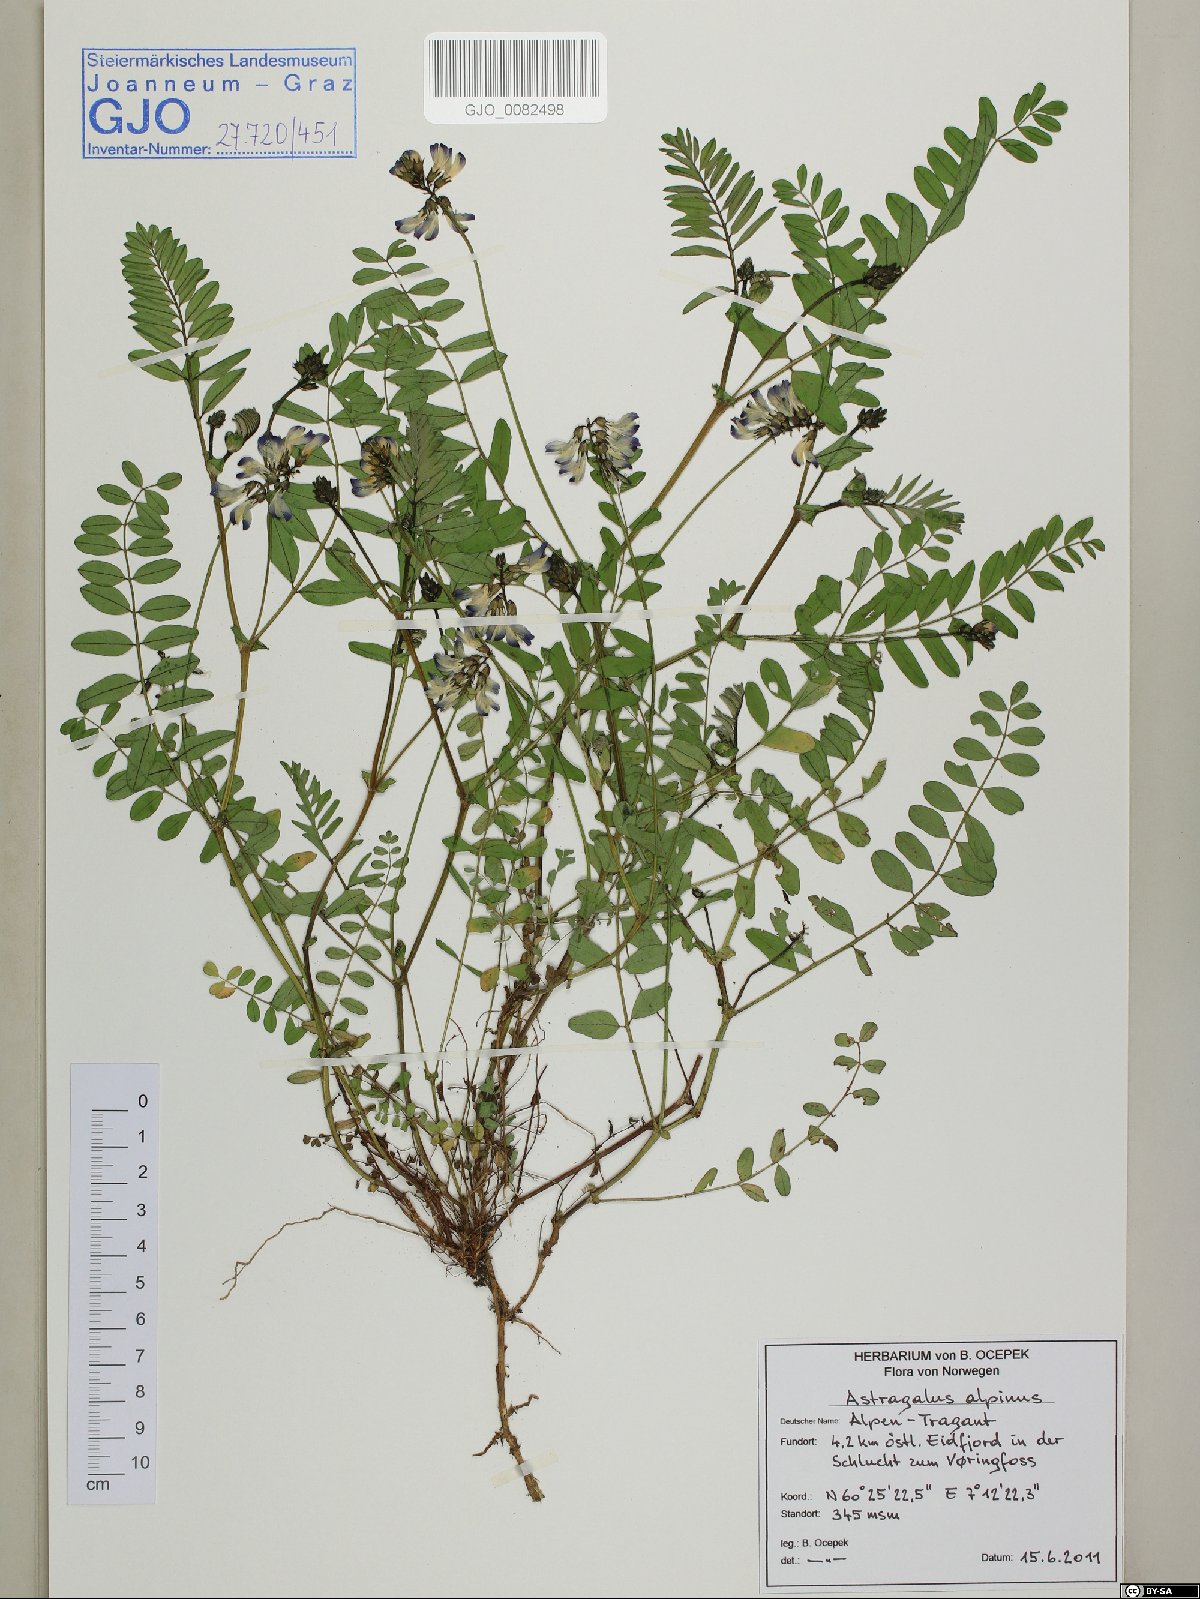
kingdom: Plantae
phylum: Tracheophyta
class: Magnoliopsida
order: Fabales
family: Fabaceae
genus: Astragalus
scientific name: Astragalus alpinus
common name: Alpine milk-vetch
